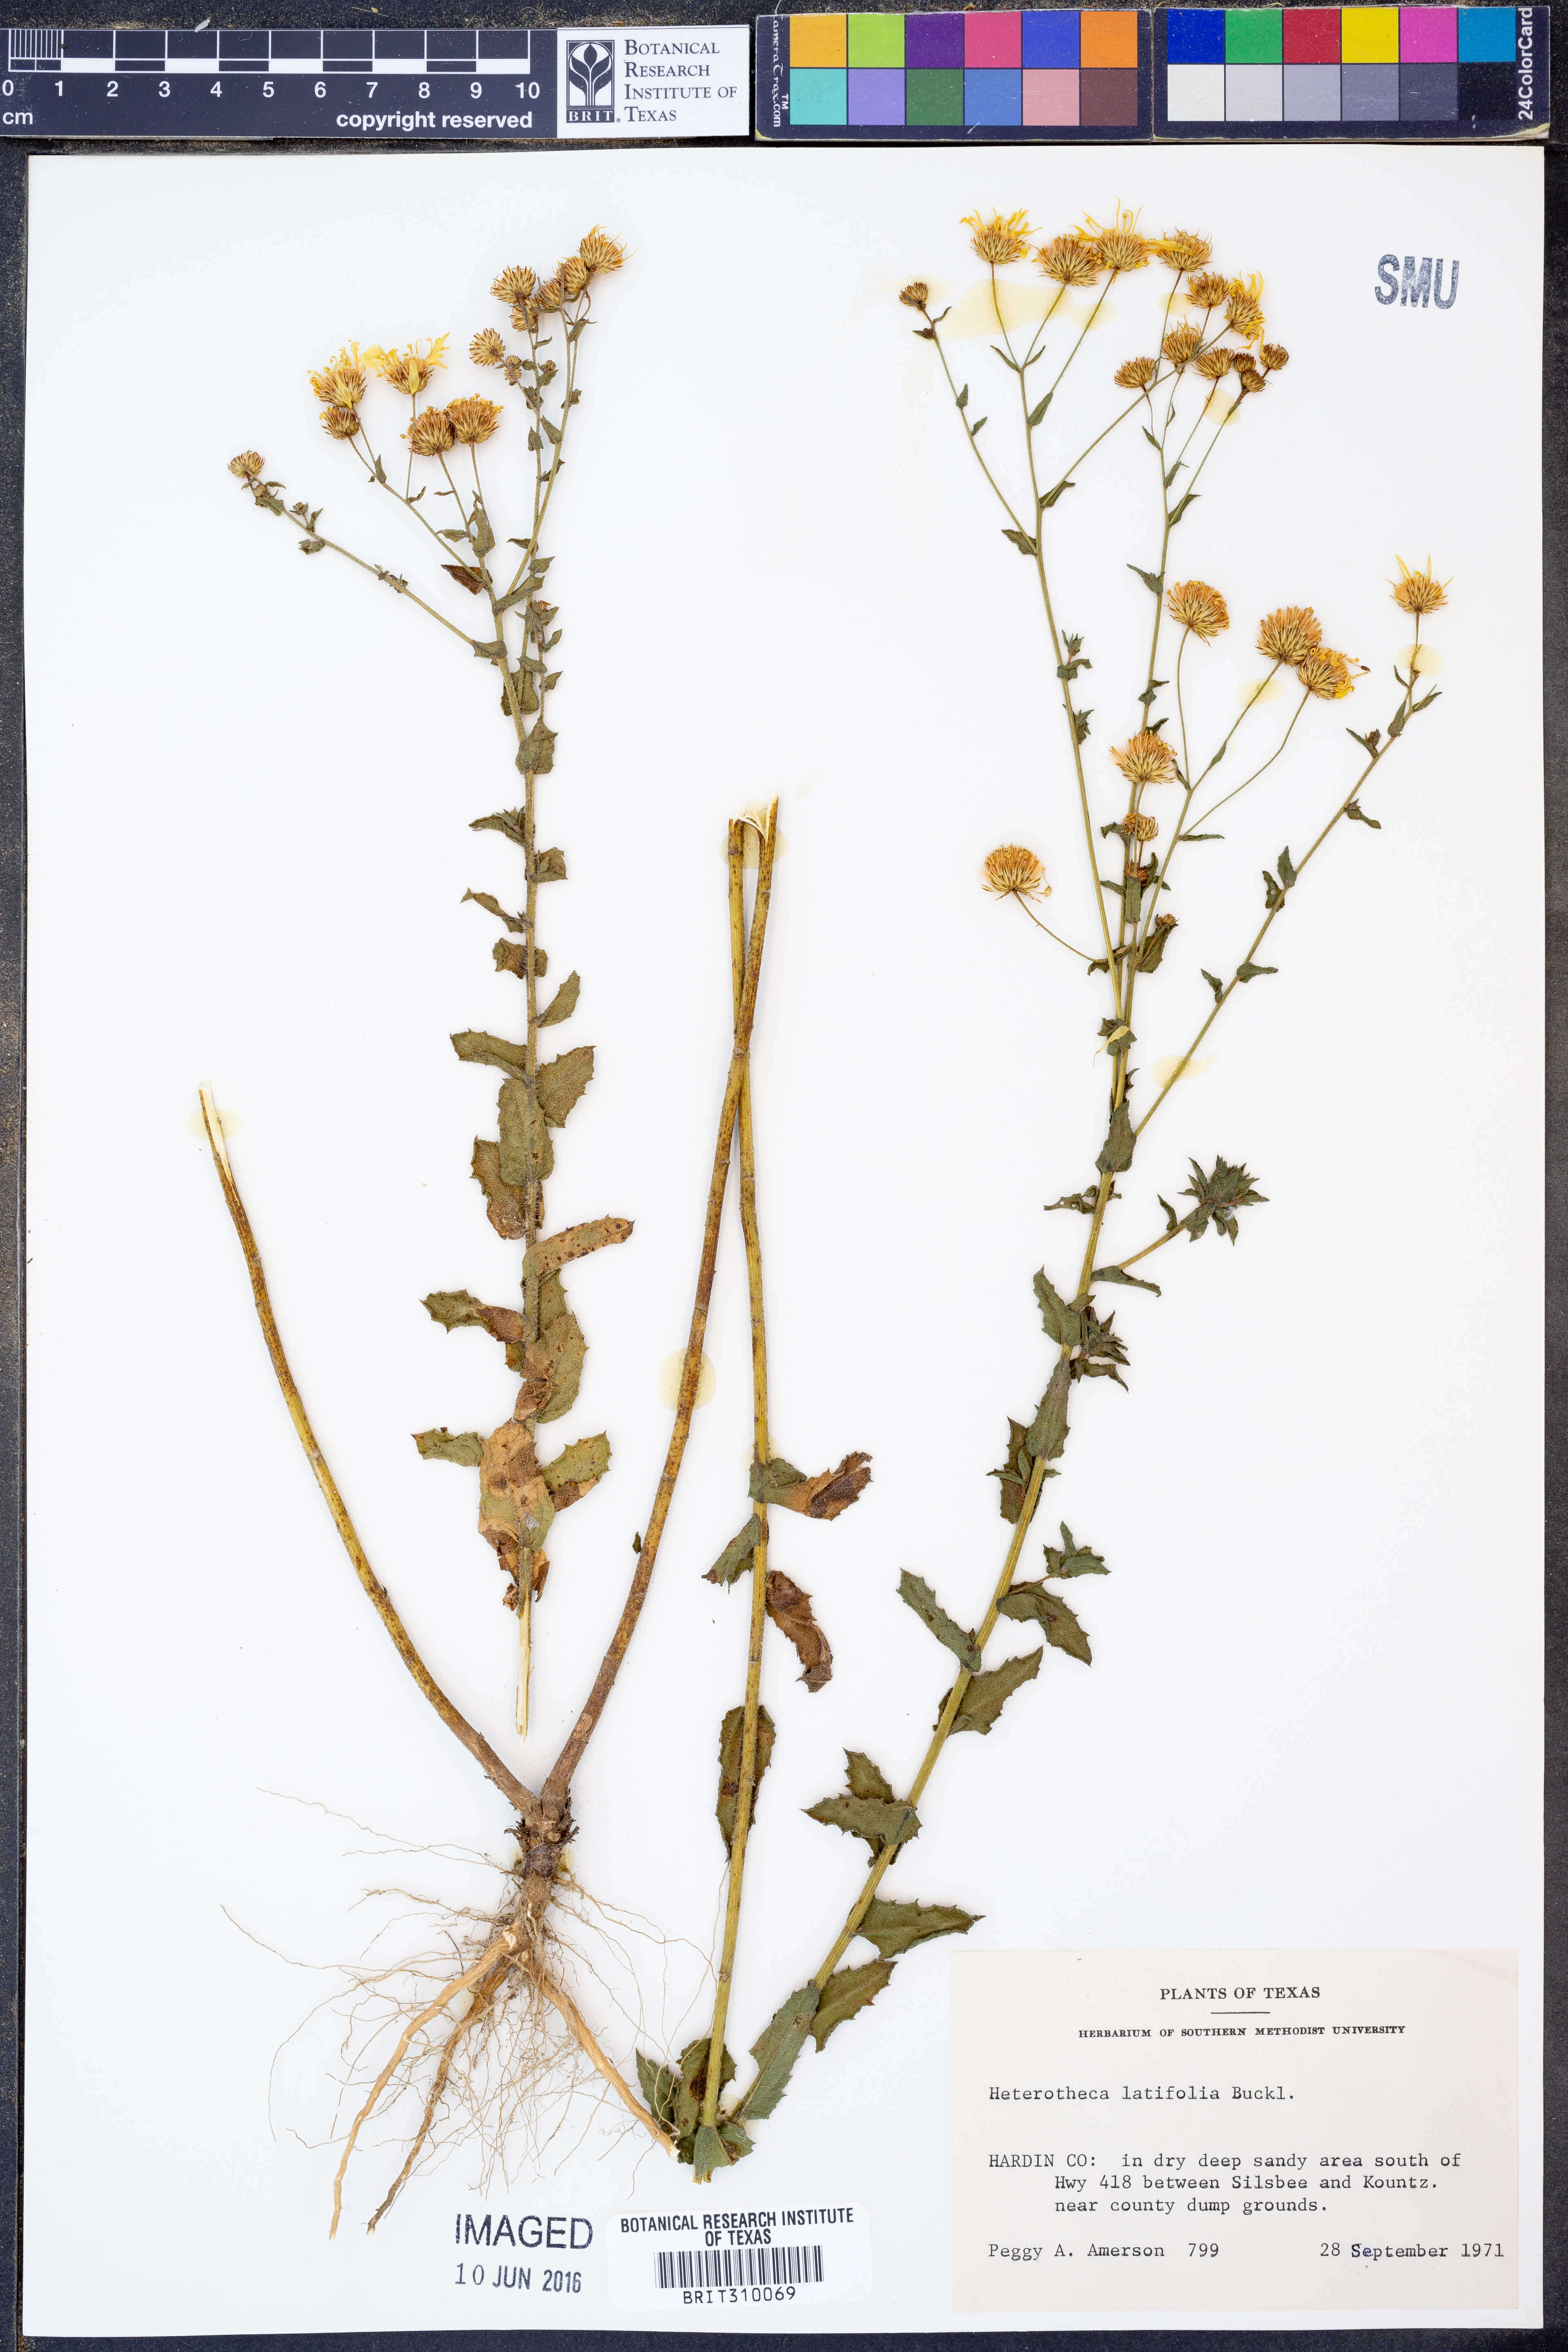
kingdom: Plantae
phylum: Tracheophyta
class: Magnoliopsida
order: Asterales
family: Asteraceae
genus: Heterotheca
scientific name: Heterotheca subaxillaris
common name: Camphorweed
